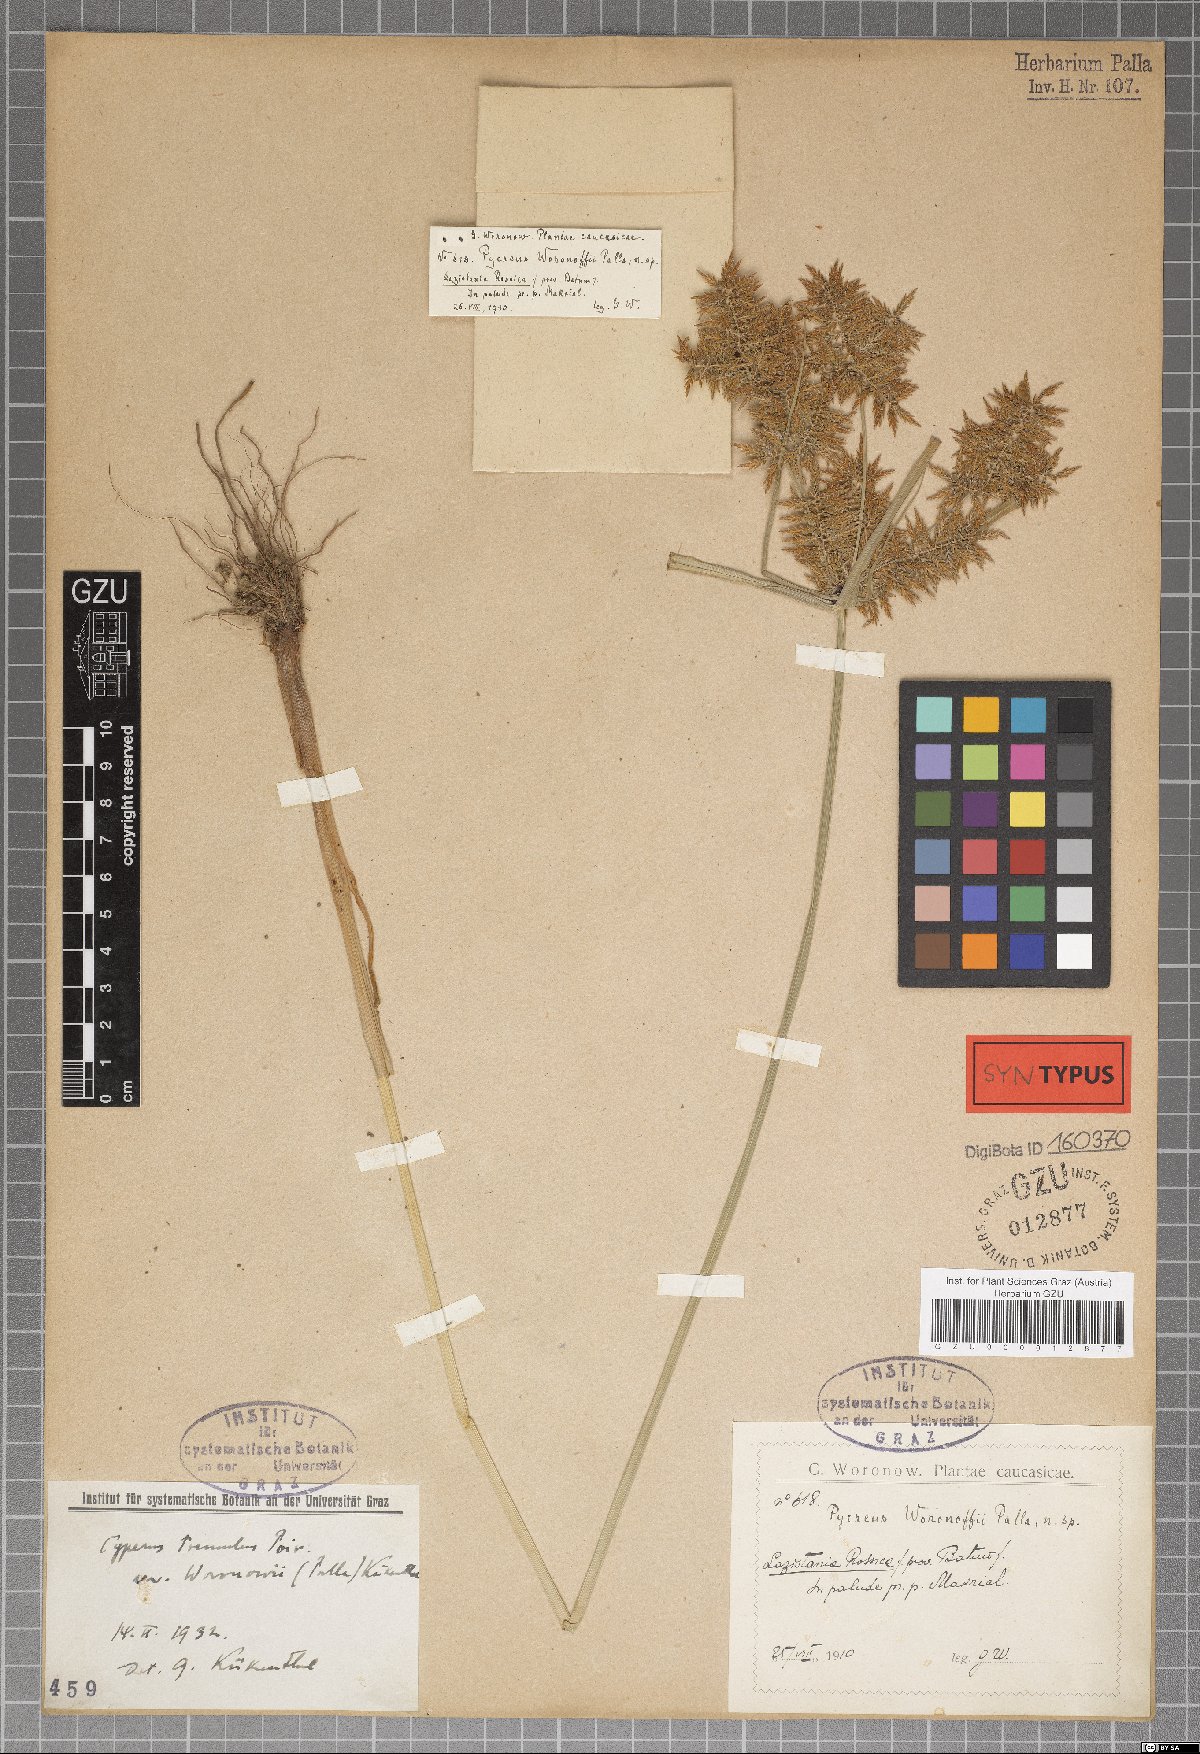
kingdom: Plantae
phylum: Tracheophyta
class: Liliopsida
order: Poales
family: Cyperaceae
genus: Cyperus
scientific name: Cyperus colchicus
